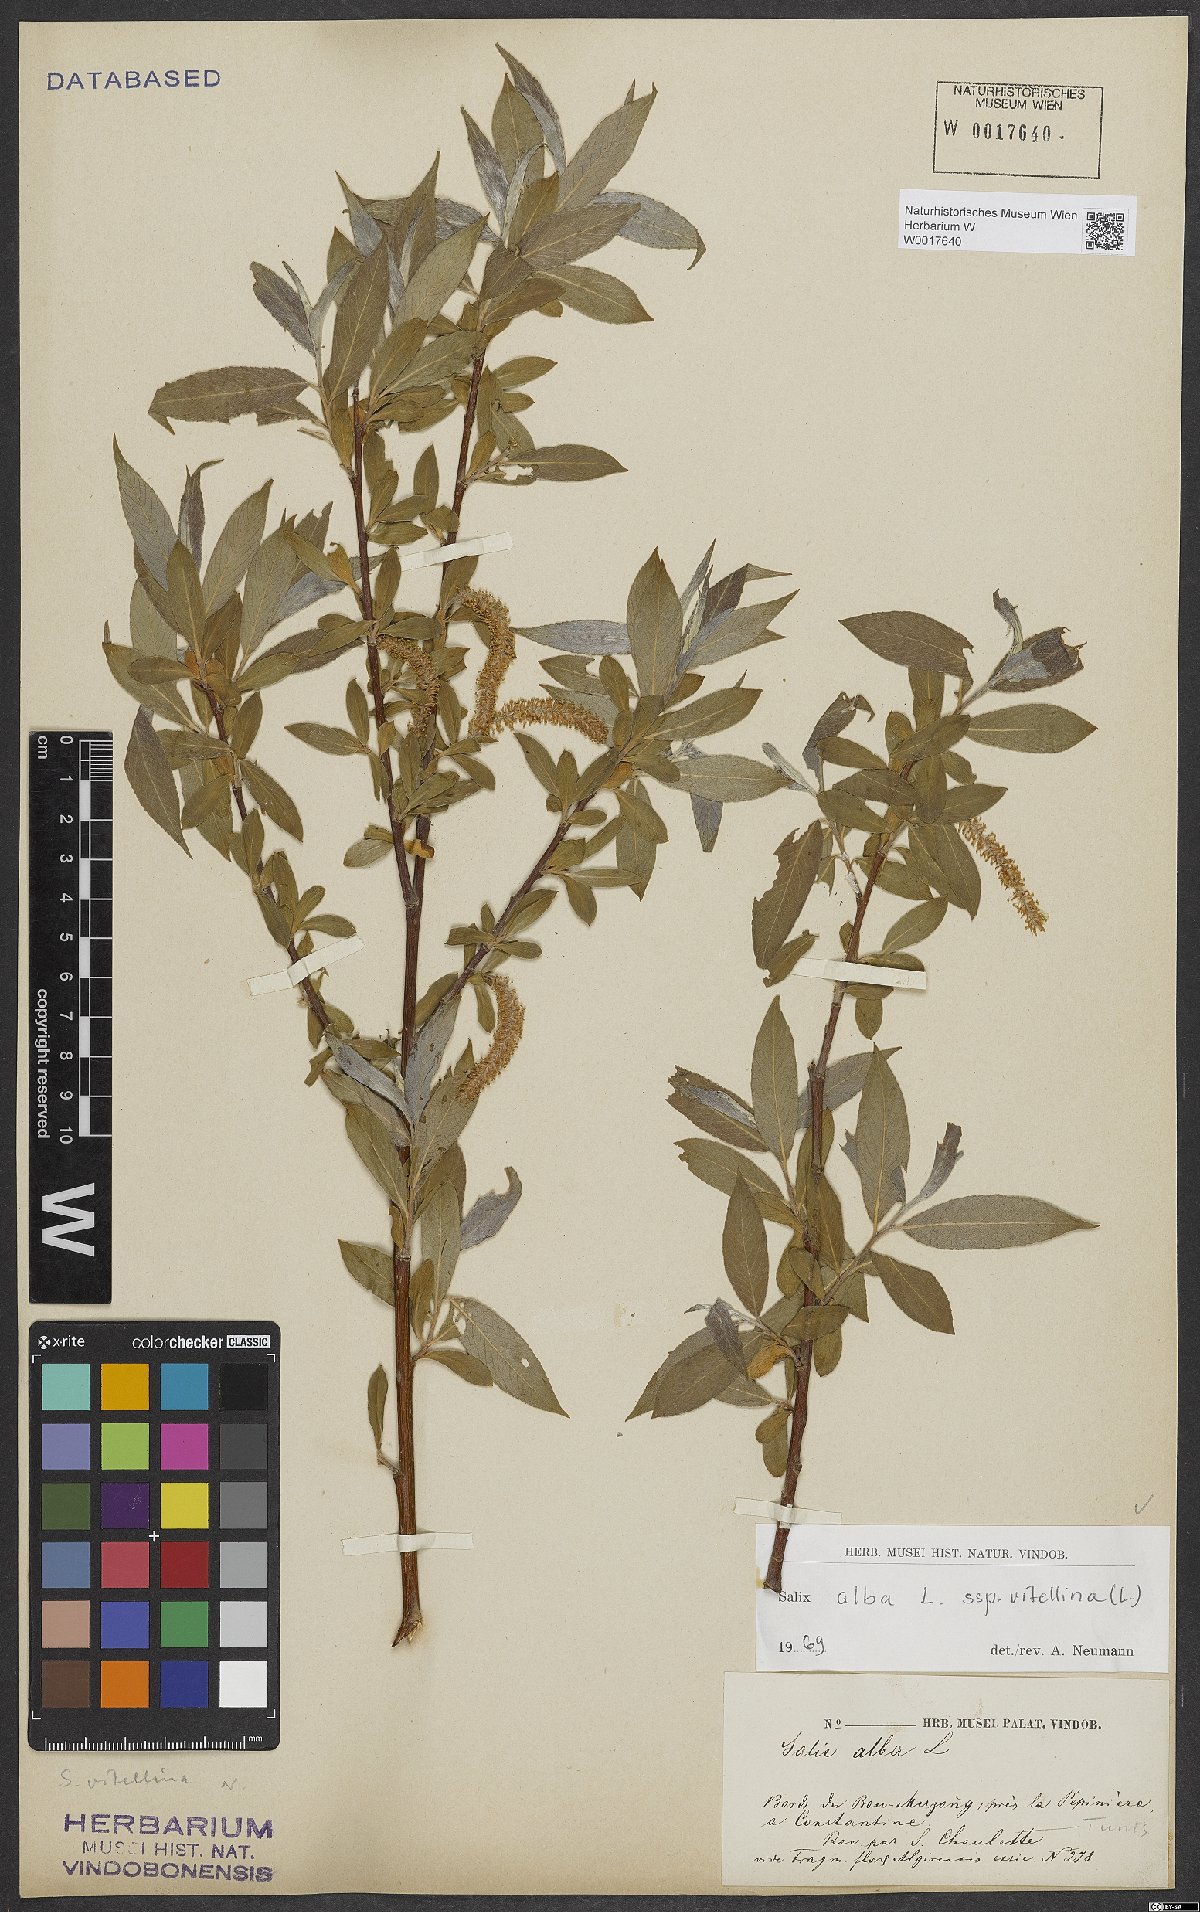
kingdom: Plantae
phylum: Tracheophyta
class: Magnoliopsida
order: Malpighiales
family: Salicaceae
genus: Salix
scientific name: Salix alba
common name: White willow
